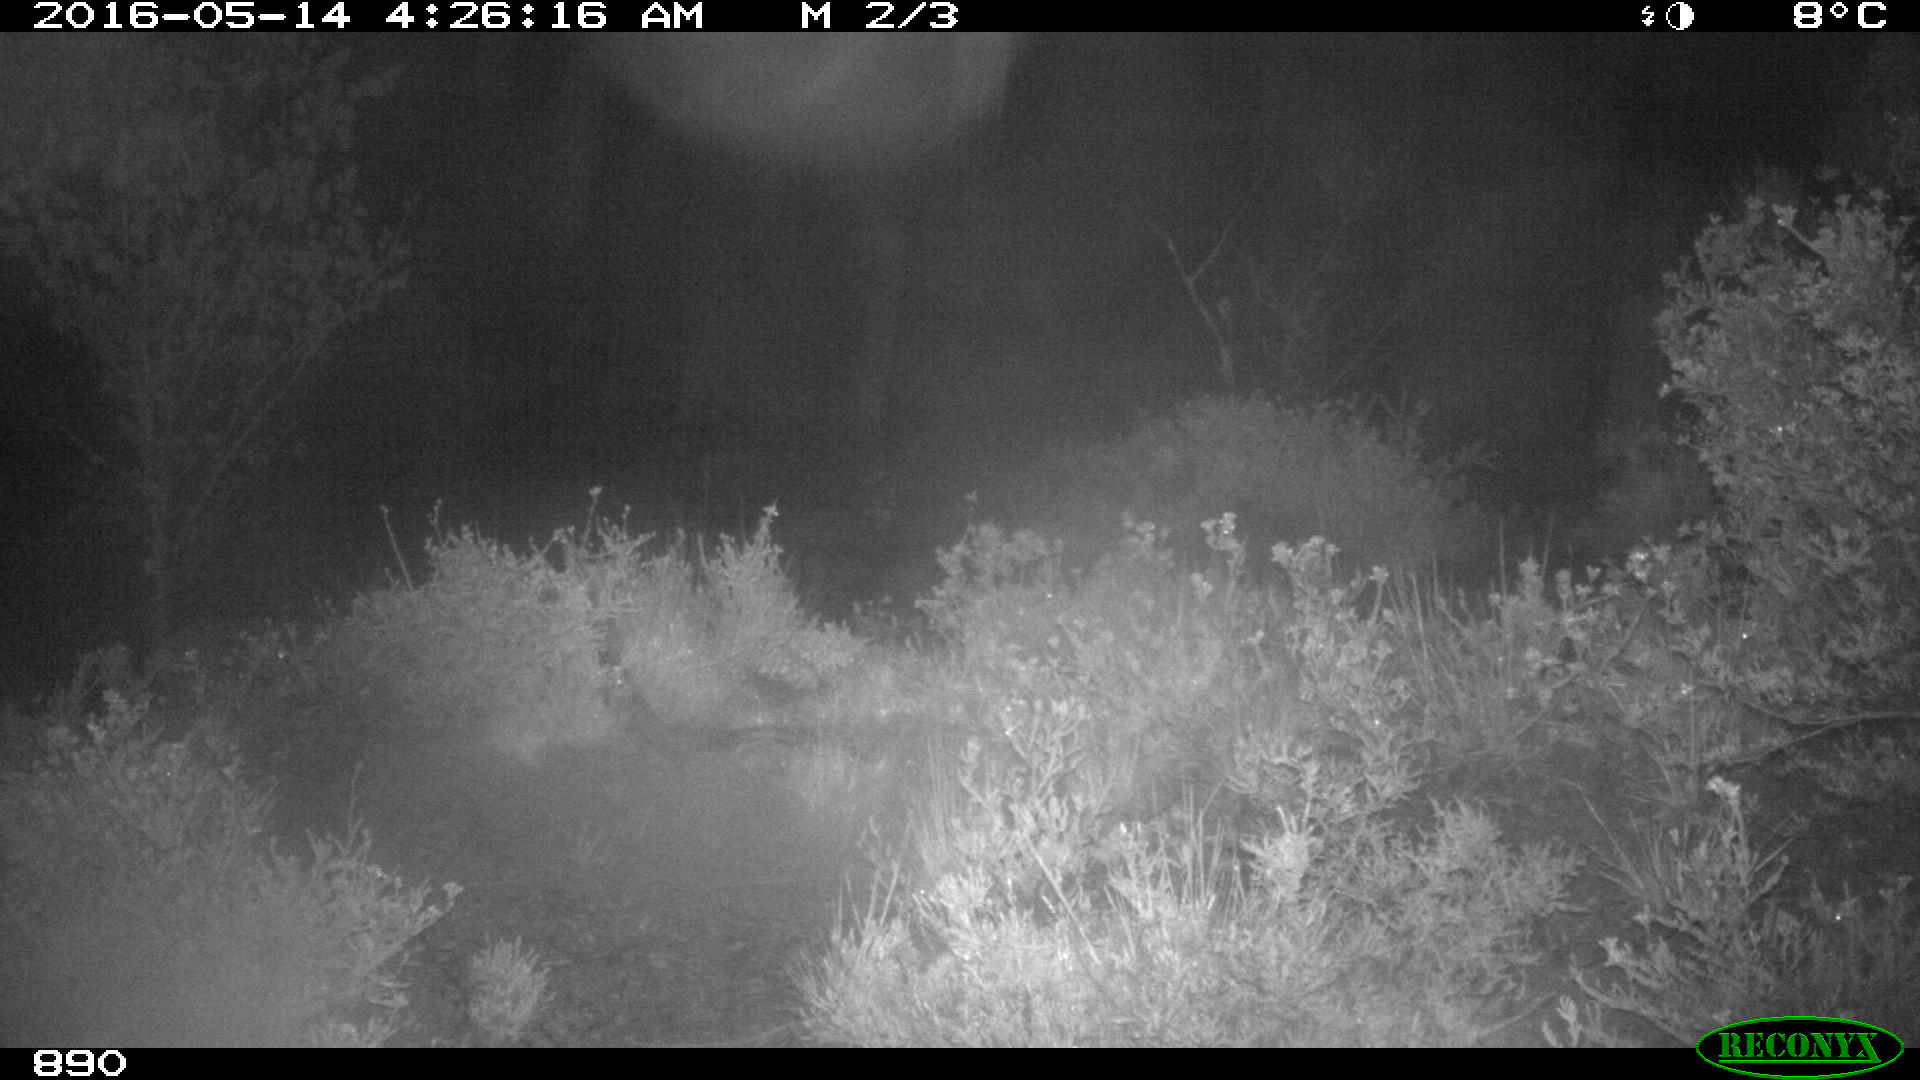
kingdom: Animalia
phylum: Chordata
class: Mammalia
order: Artiodactyla
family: Cervidae
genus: Capreolus
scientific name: Capreolus capreolus
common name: Western roe deer
